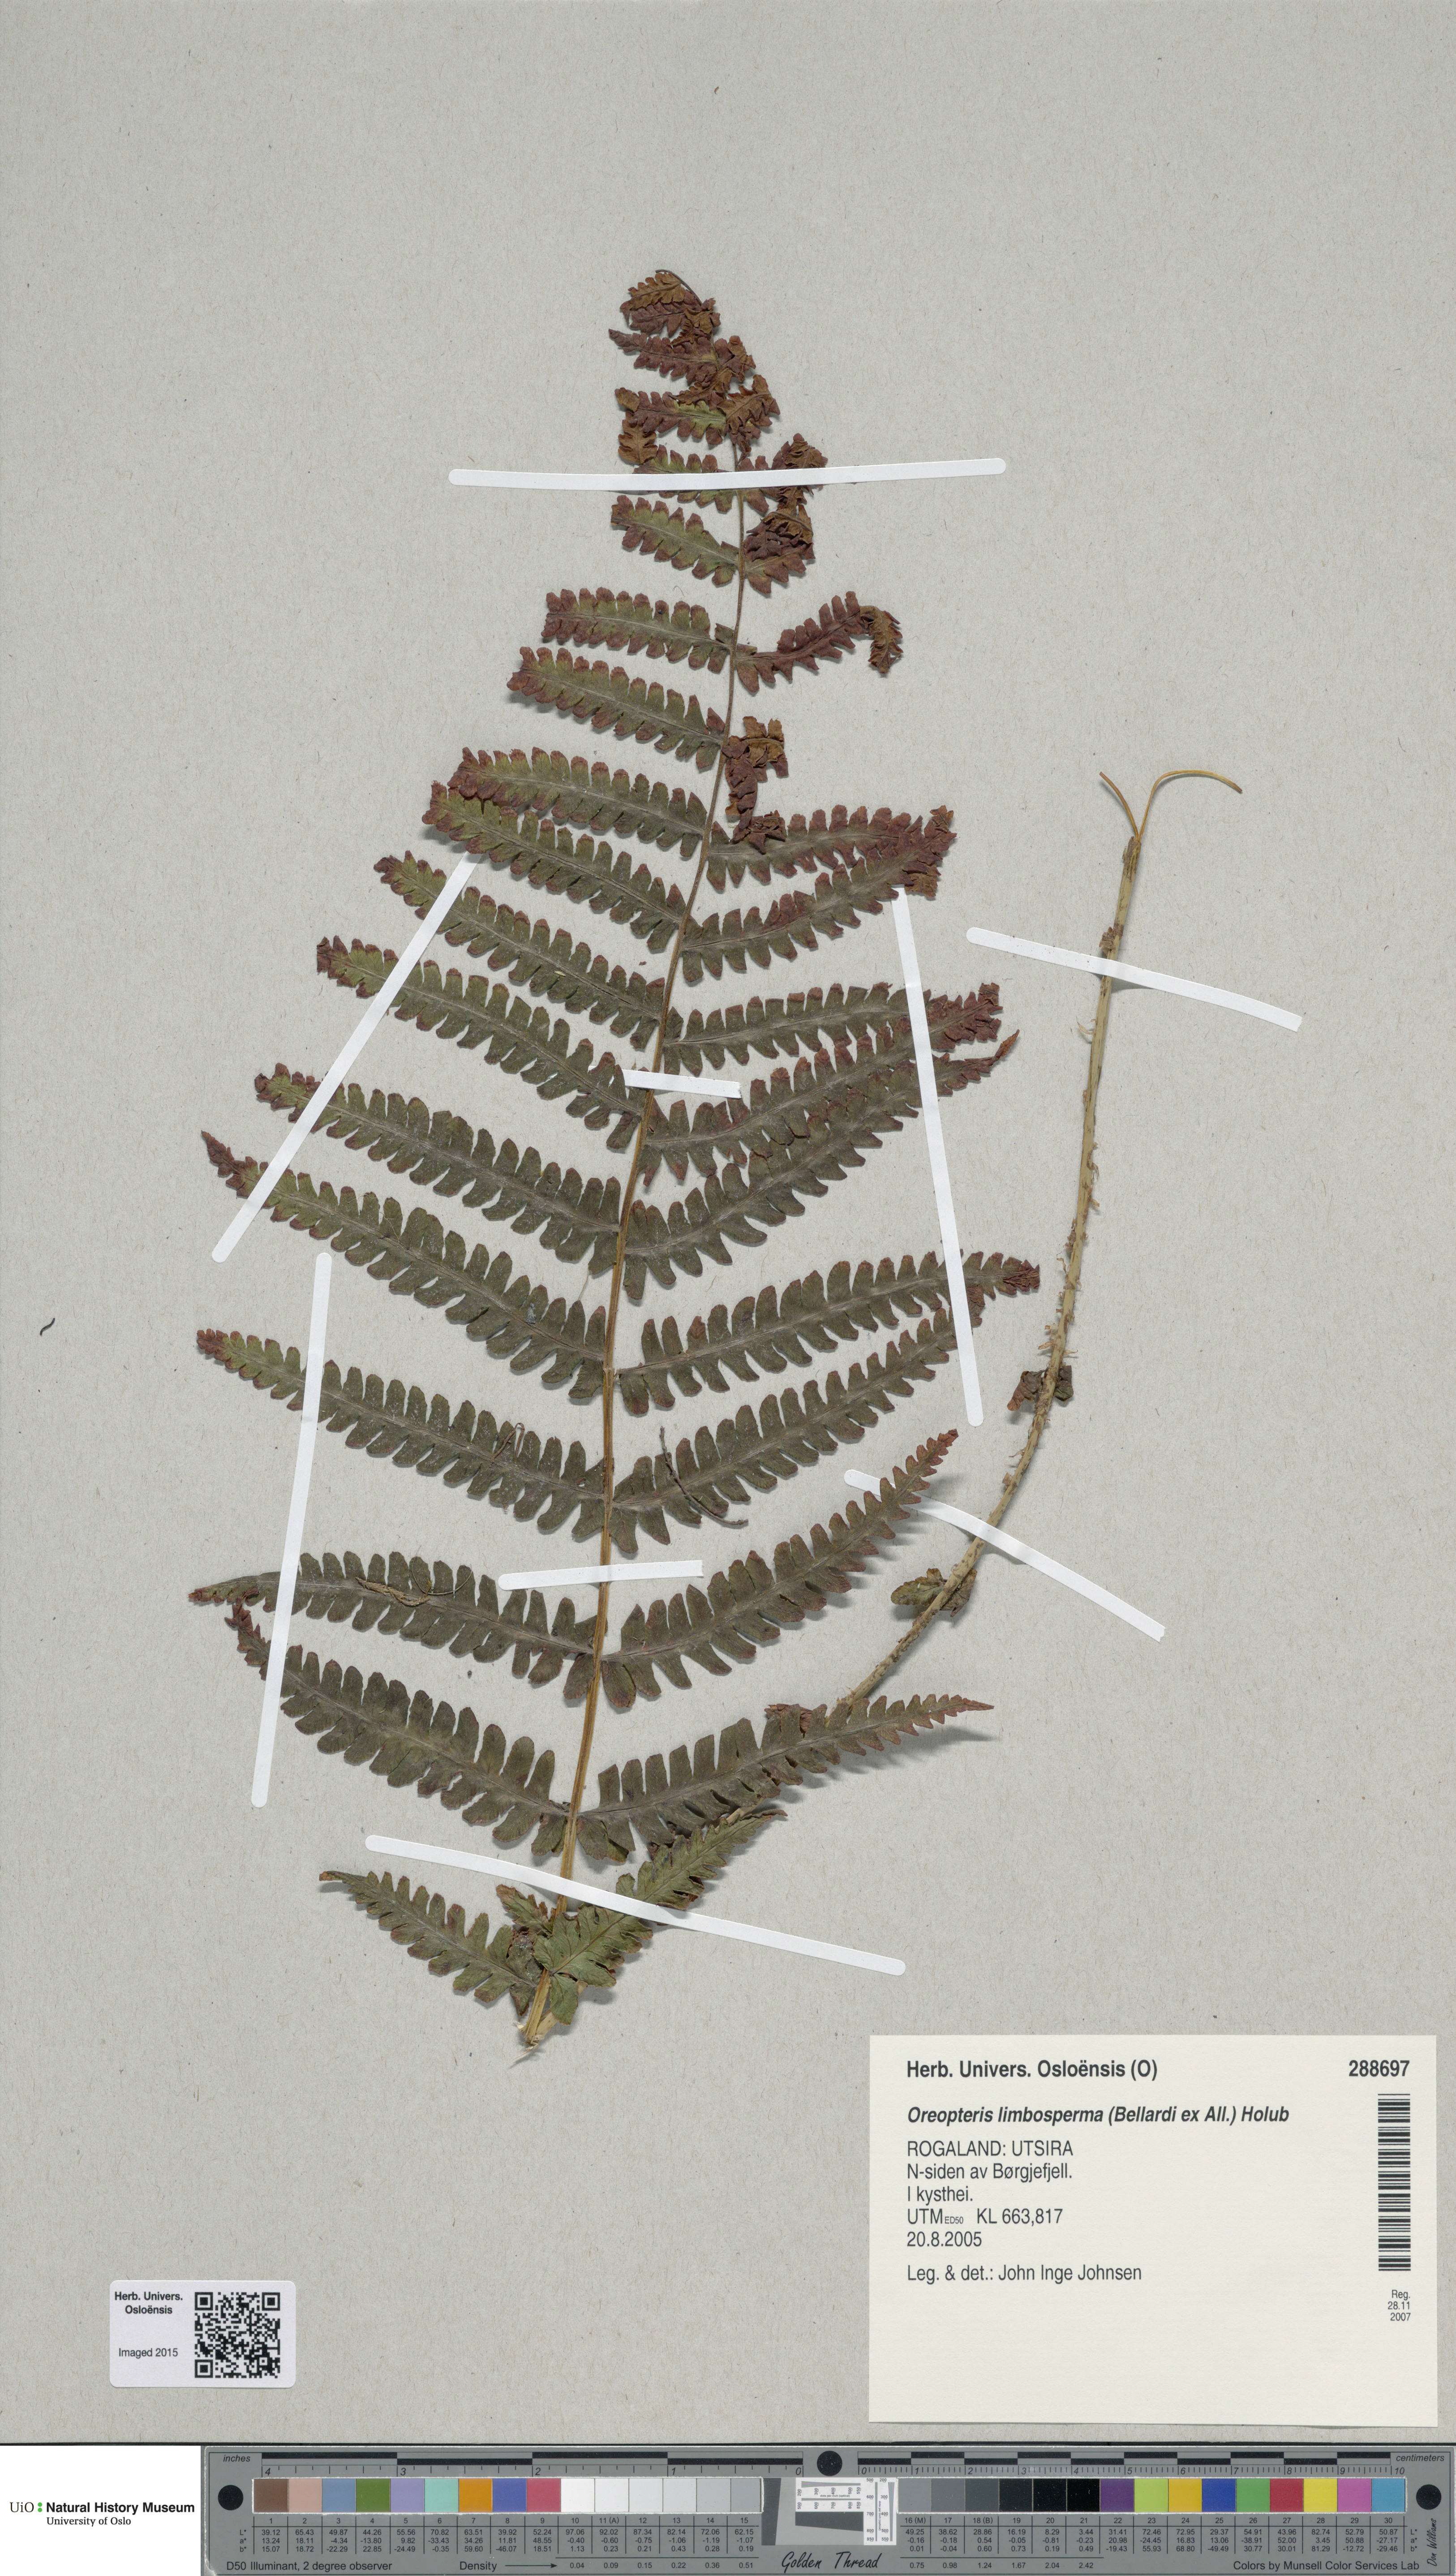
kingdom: Plantae
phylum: Tracheophyta
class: Polypodiopsida
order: Polypodiales
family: Thelypteridaceae
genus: Oreopteris
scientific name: Oreopteris limbosperma
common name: Lemon-scented fern
